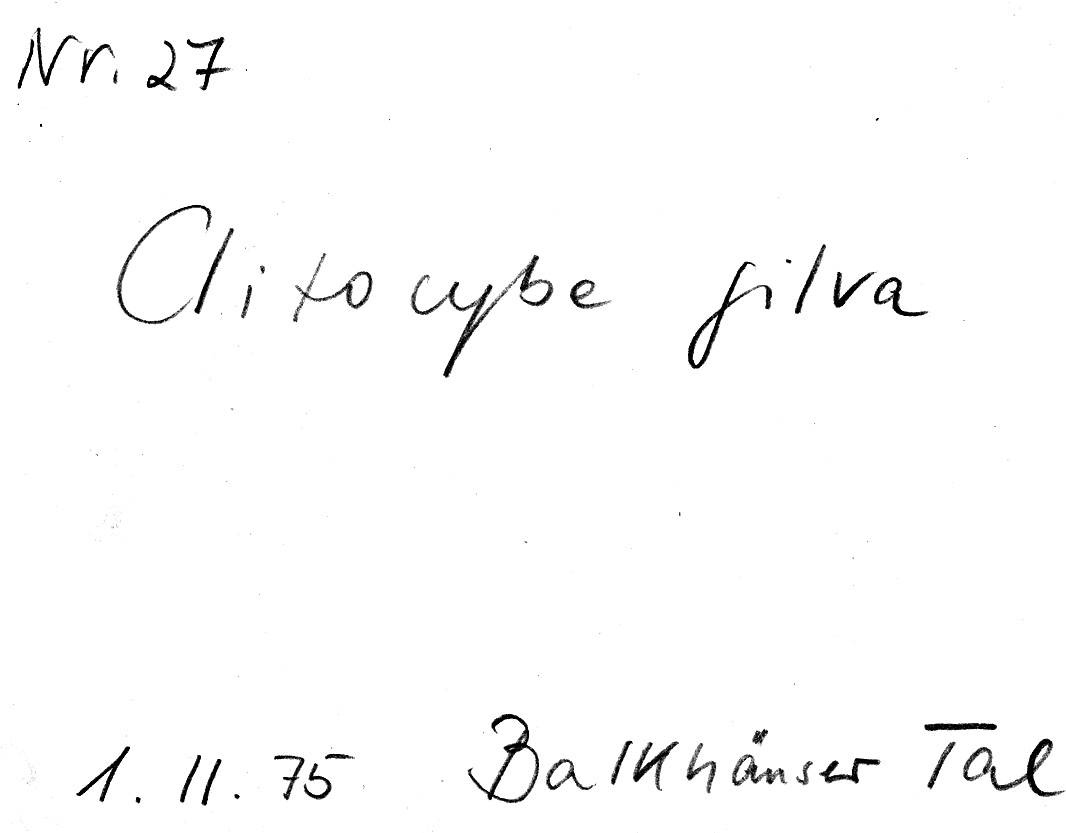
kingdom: Fungi
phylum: Basidiomycota
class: Agaricomycetes
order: Agaricales
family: Tricholomataceae
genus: Paralepista
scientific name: Paralepista flaccida
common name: Tawny funnel cap
